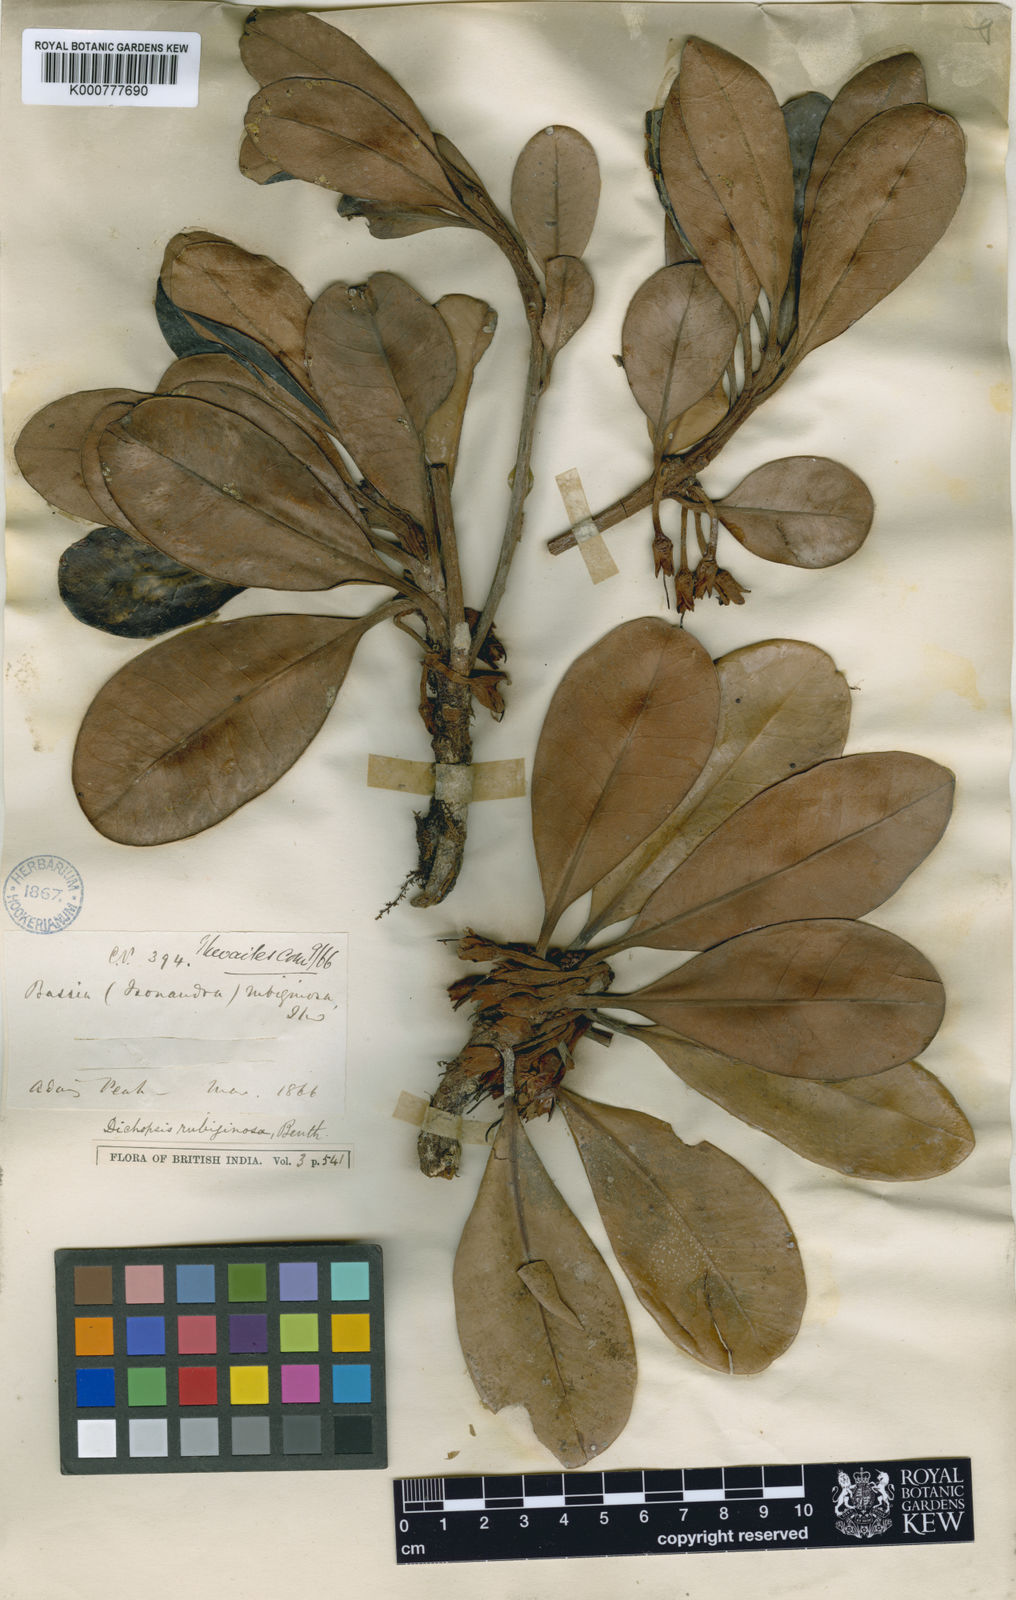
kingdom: Plantae
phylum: Tracheophyta
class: Magnoliopsida
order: Ericales
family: Sapotaceae
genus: Palaquium
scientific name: Palaquium rubiginosum
